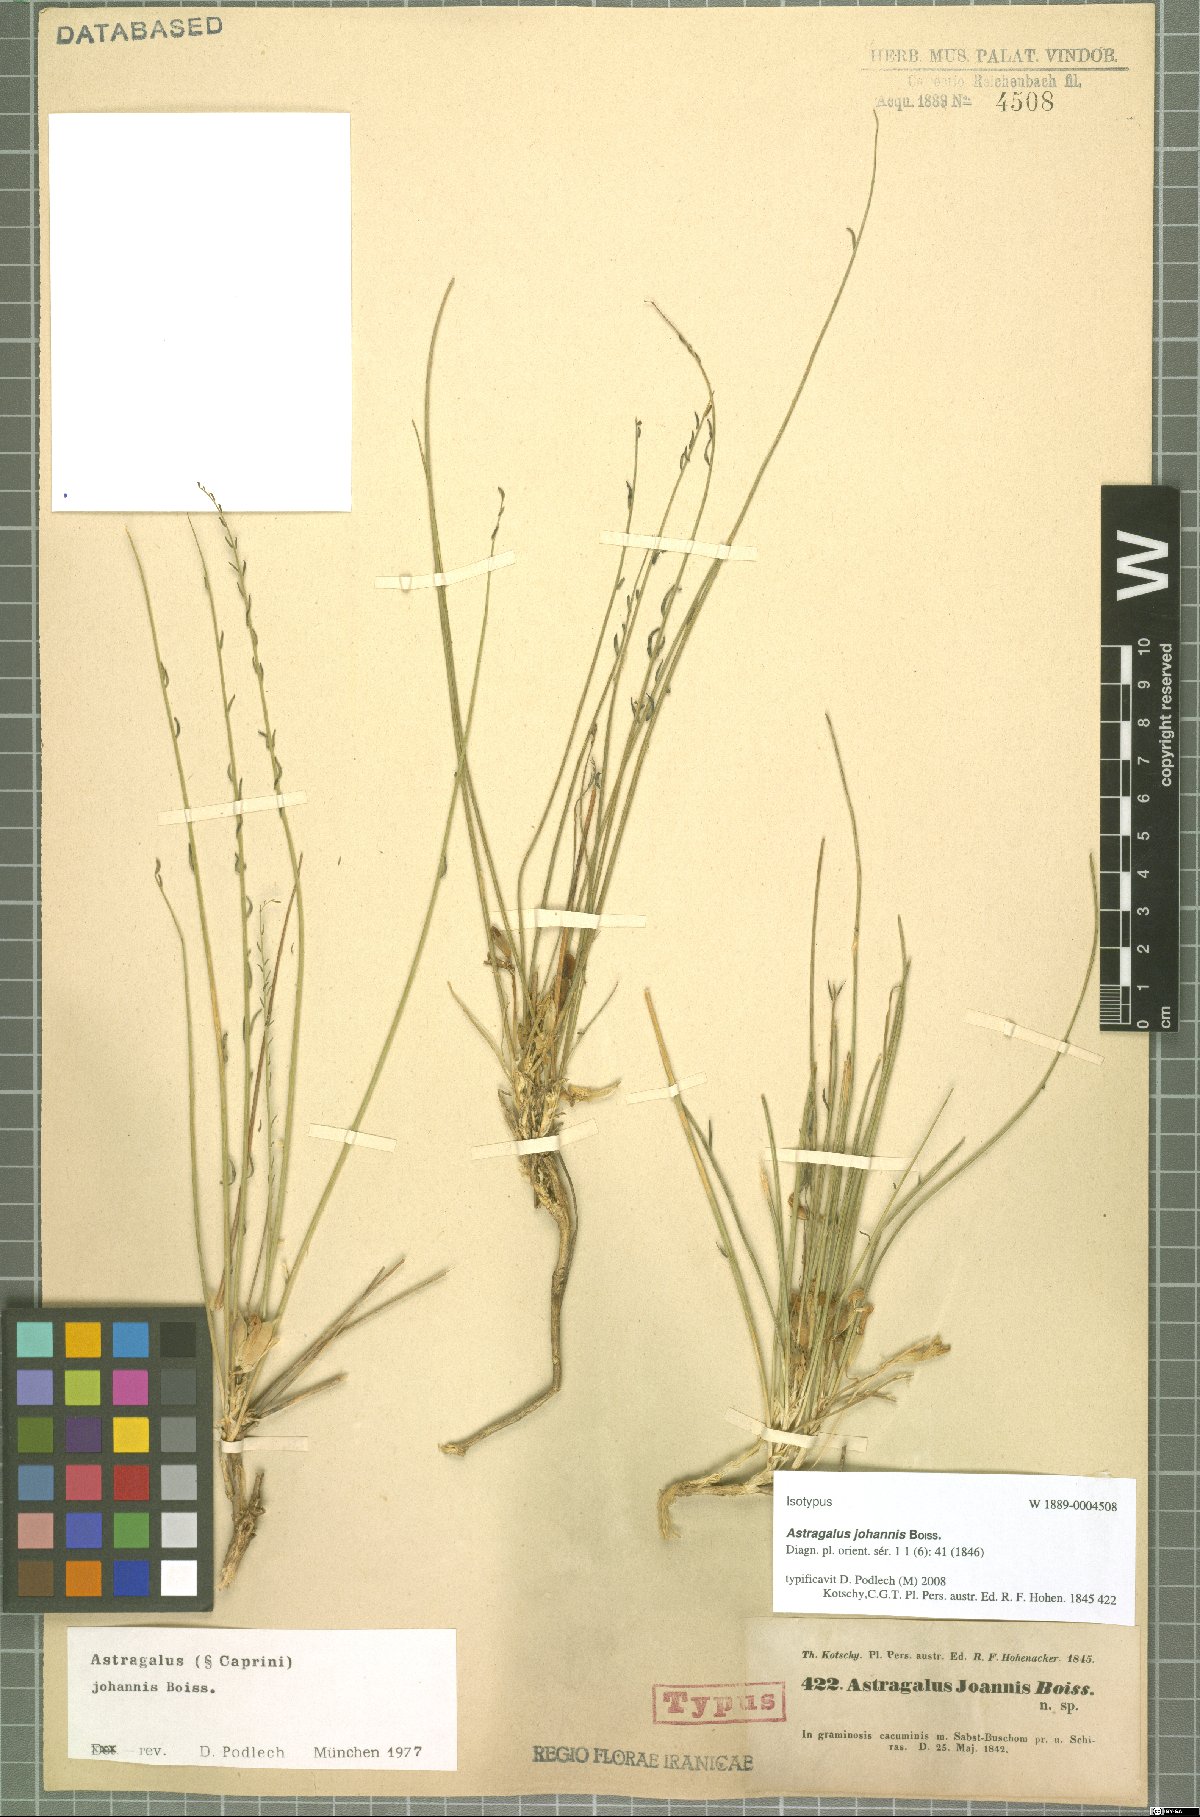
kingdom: Plantae
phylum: Tracheophyta
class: Magnoliopsida
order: Fabales
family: Fabaceae
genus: Astragalus
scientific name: Astragalus johannis
